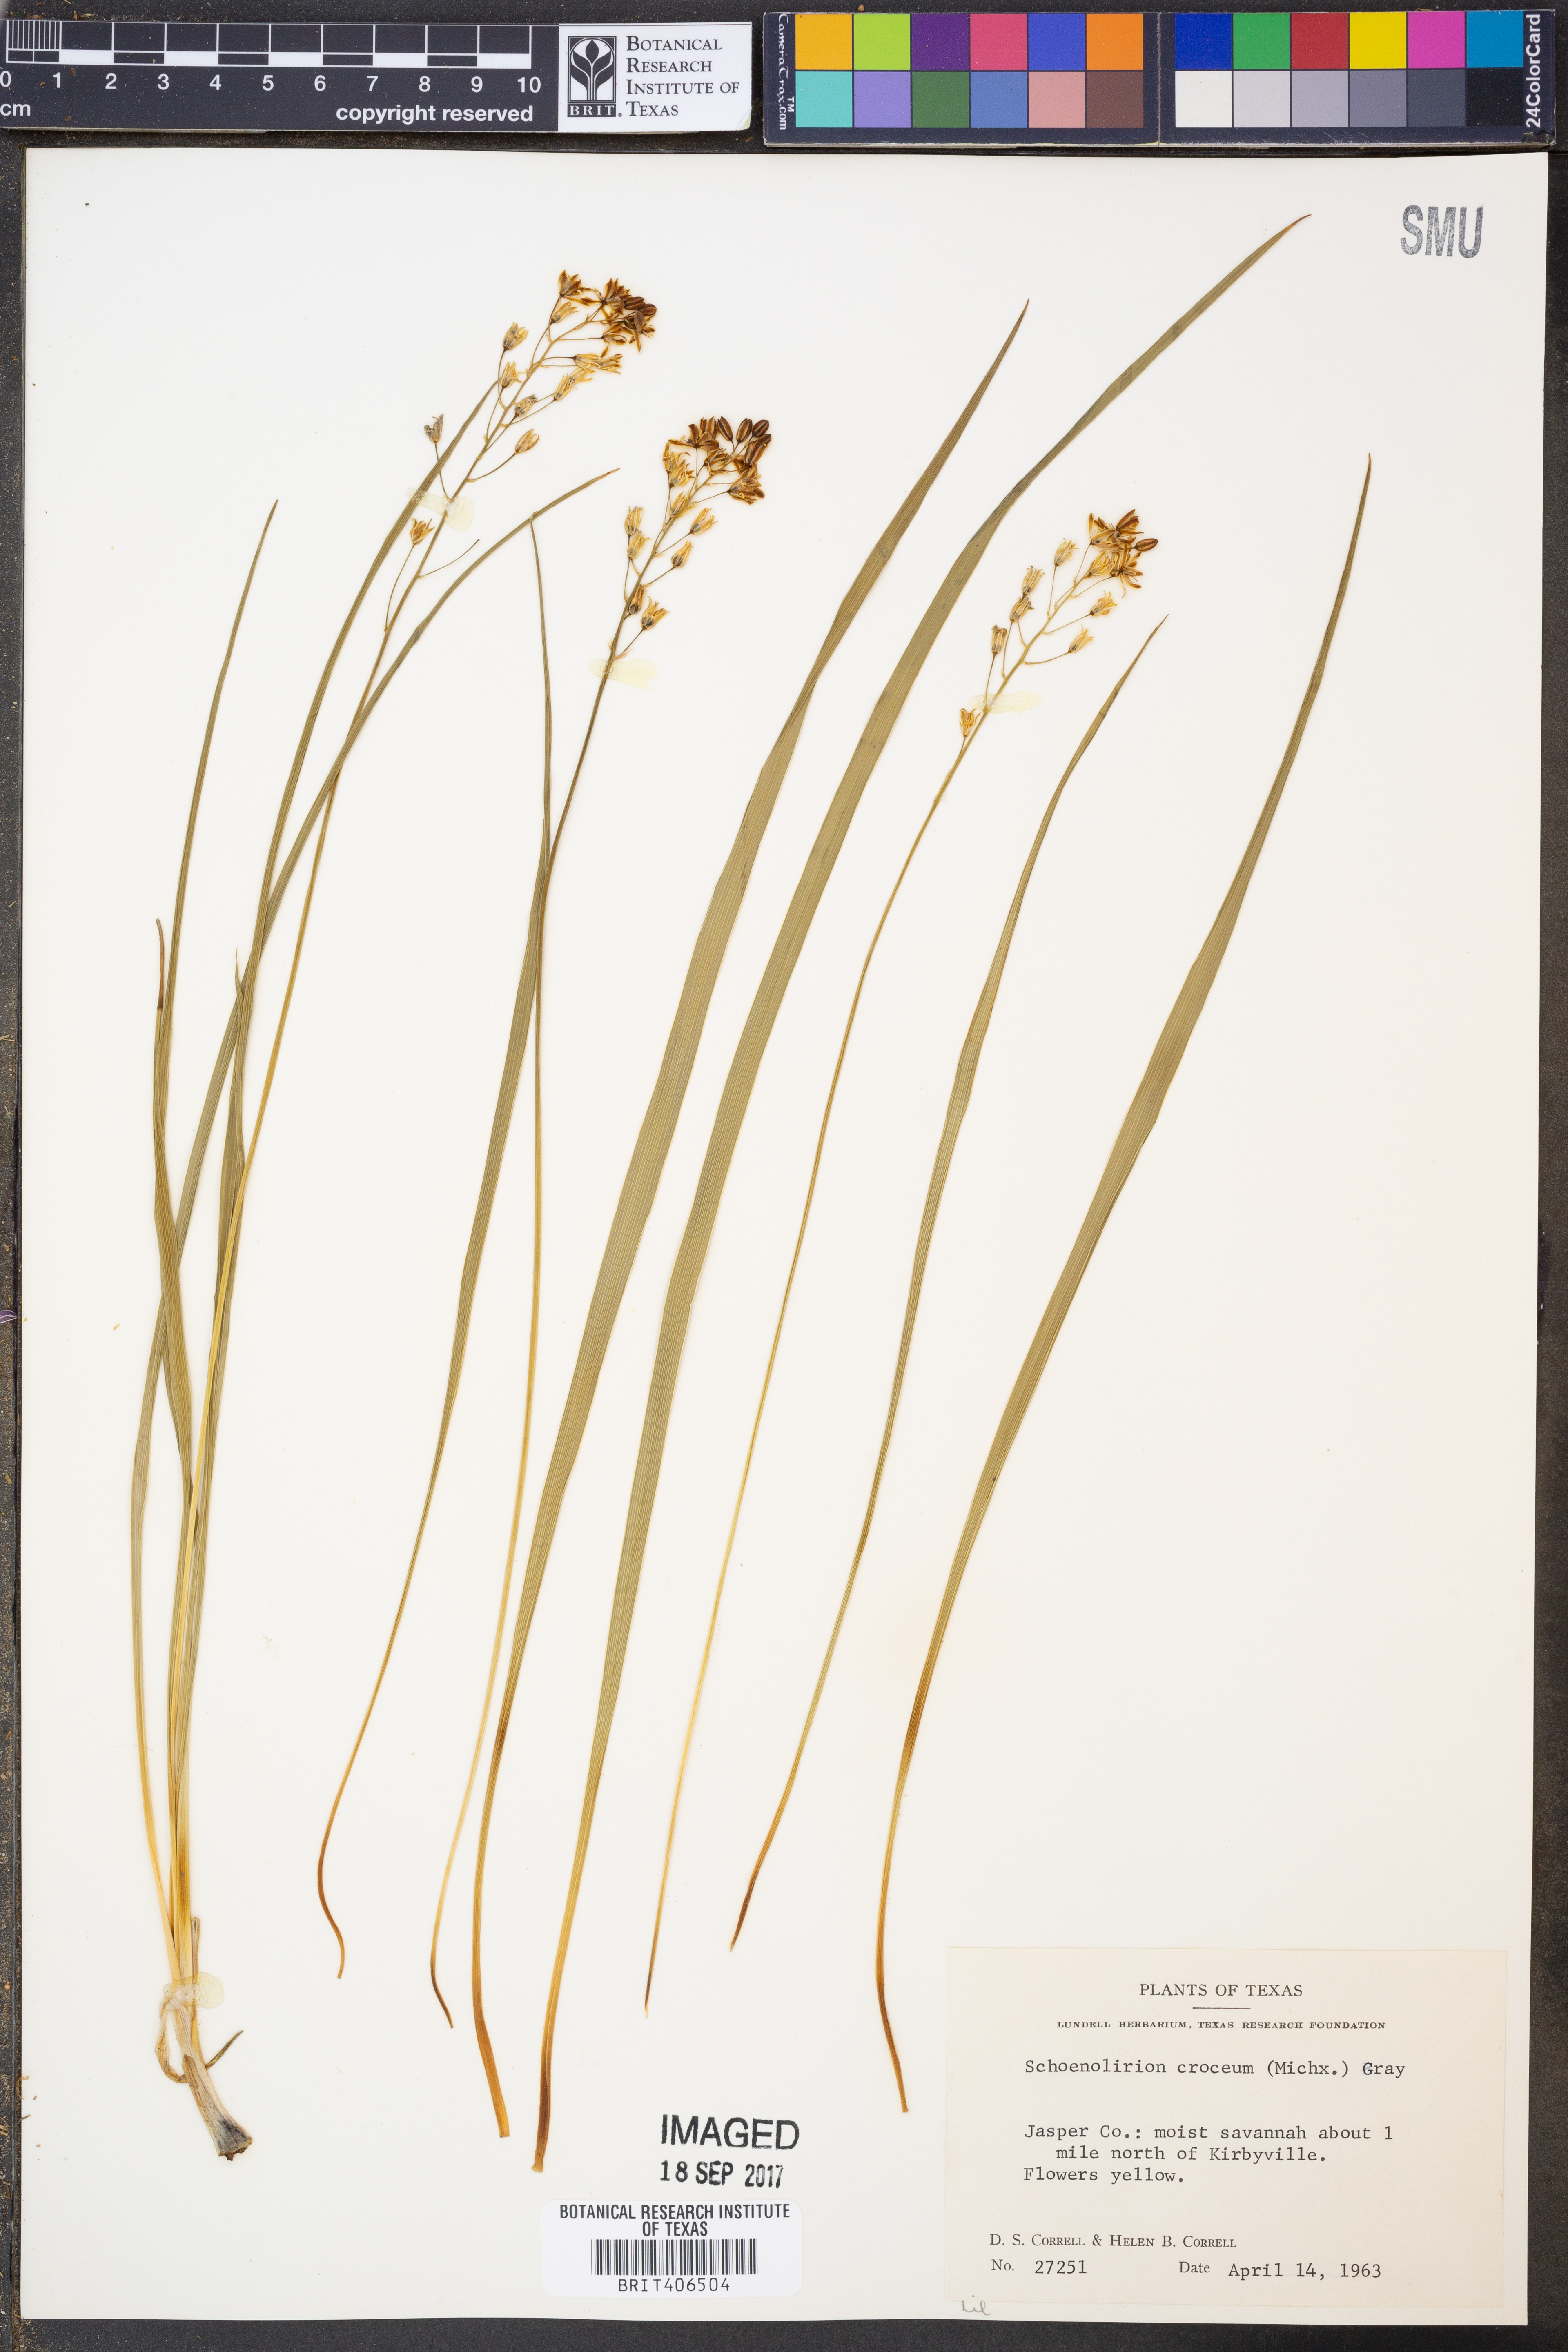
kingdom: Plantae
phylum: Tracheophyta
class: Liliopsida
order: Asparagales
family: Asparagaceae
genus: Schoenolirion
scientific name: Schoenolirion croceum
